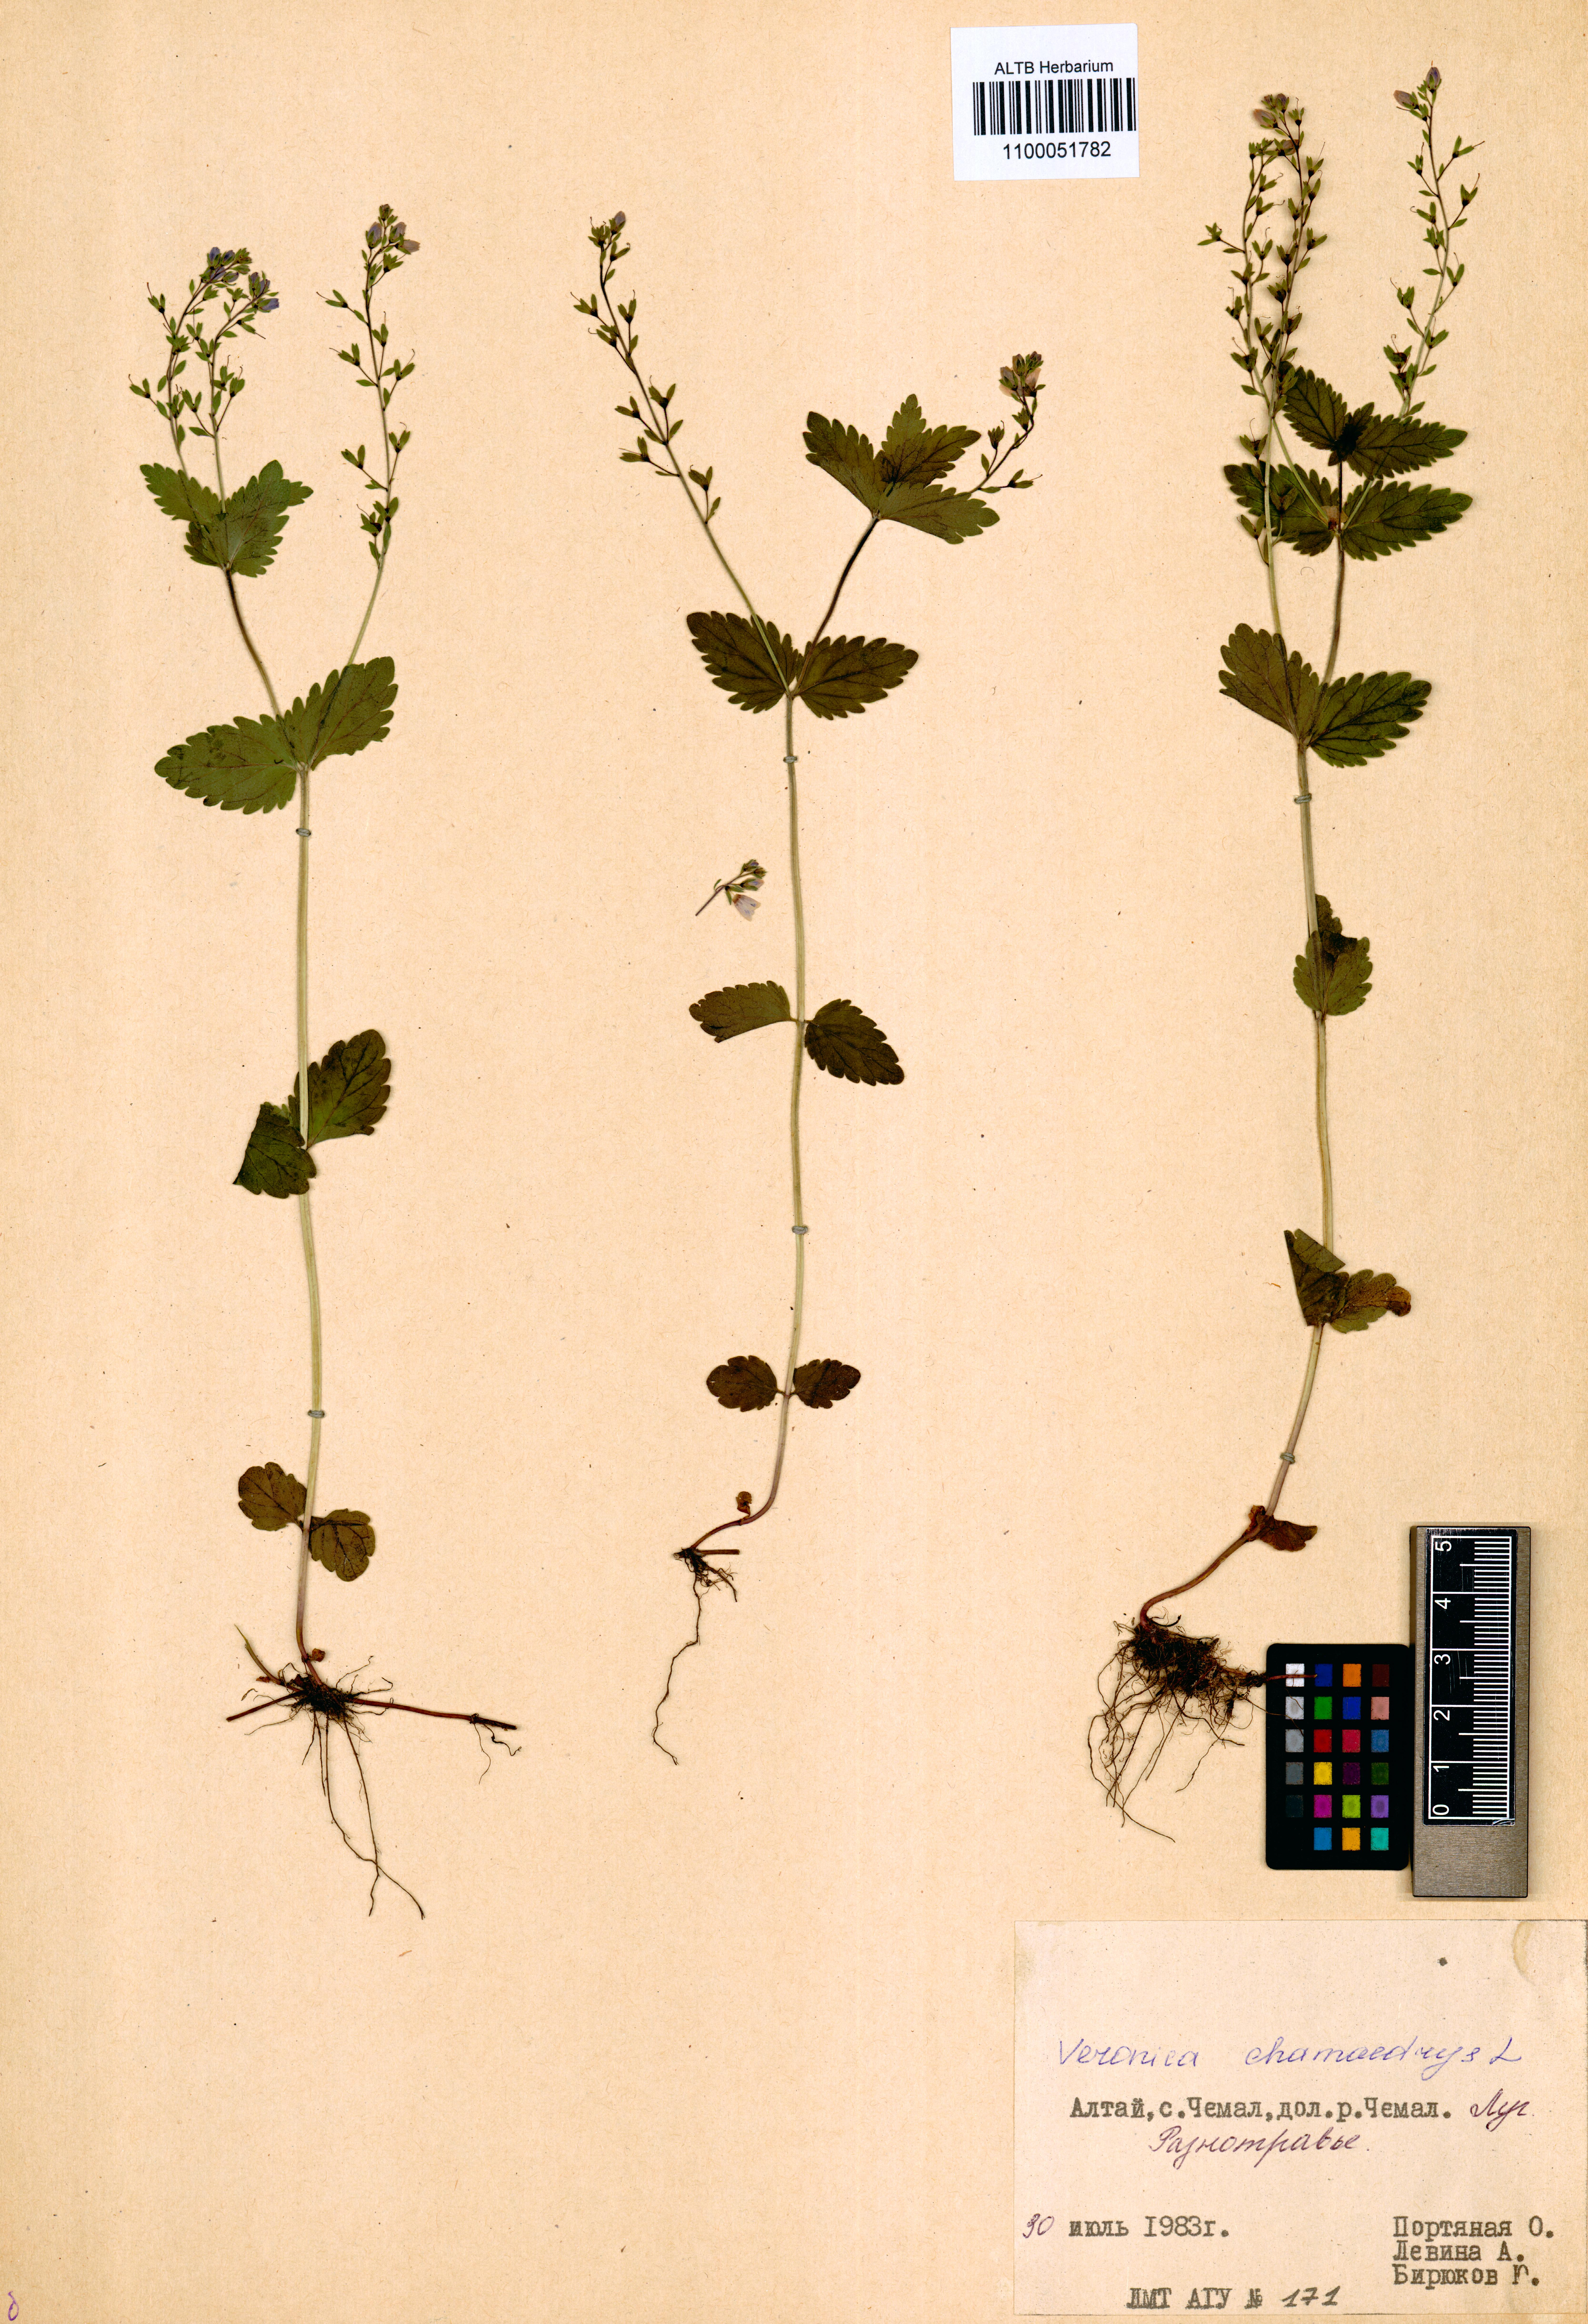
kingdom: Plantae
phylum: Tracheophyta
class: Magnoliopsida
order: Lamiales
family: Plantaginaceae
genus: Veronica
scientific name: Veronica chamaedrys
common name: Germander speedwell
